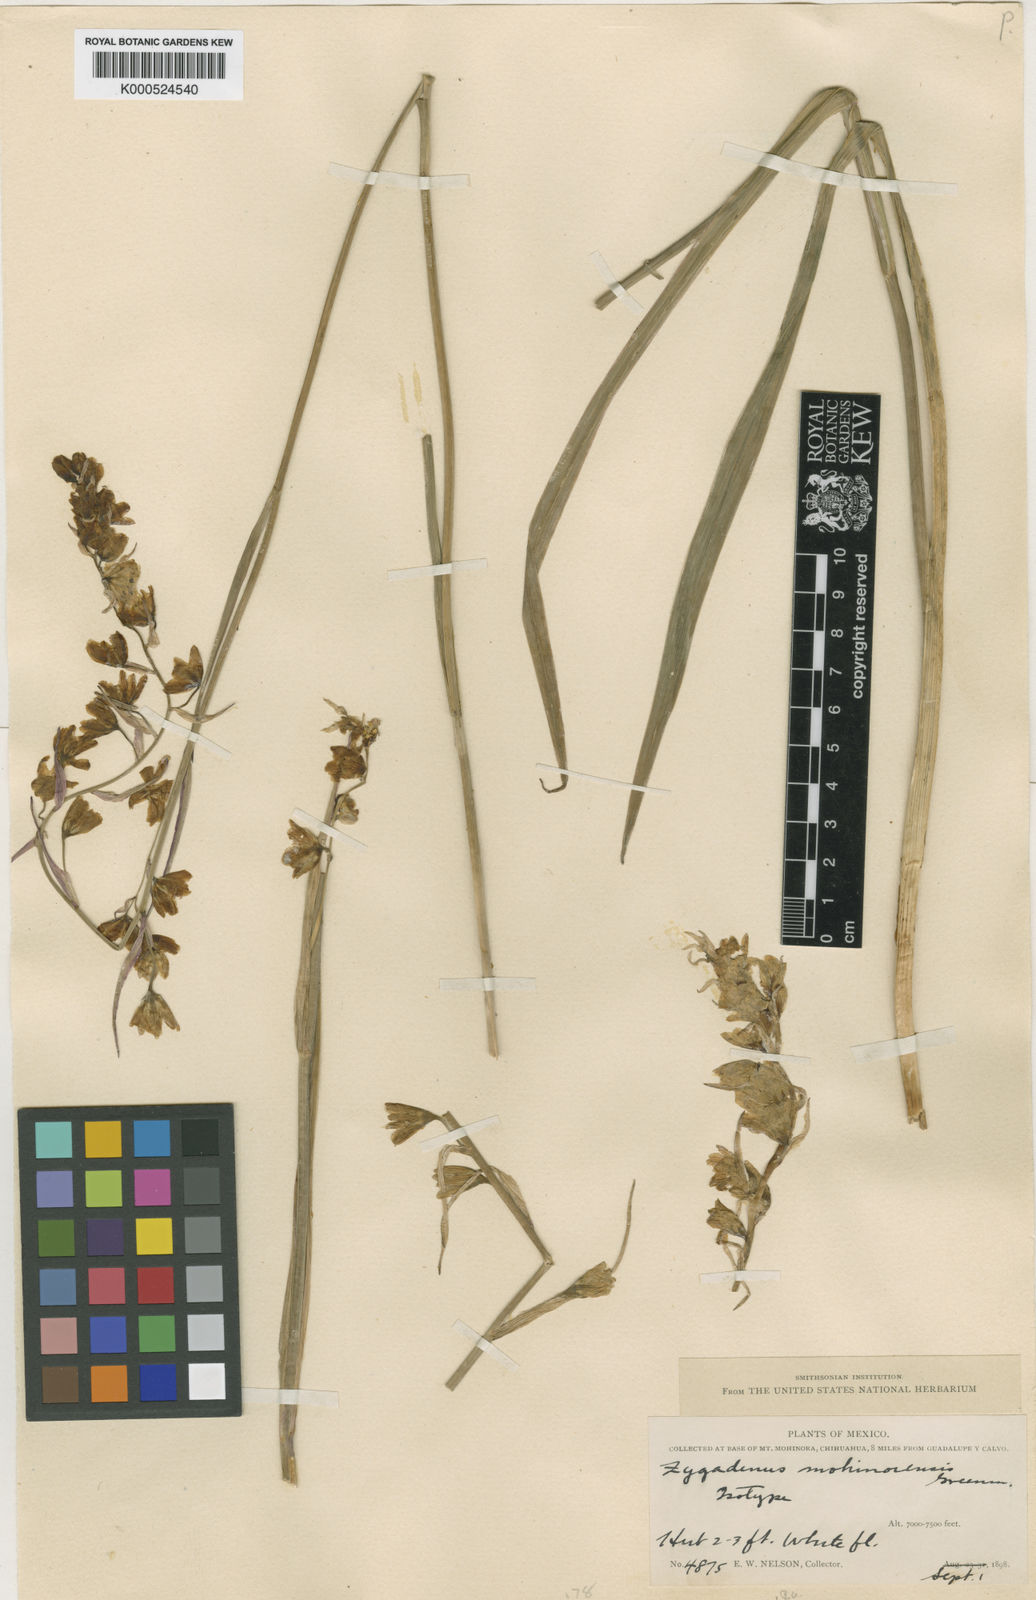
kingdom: Plantae
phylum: Tracheophyta
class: Liliopsida
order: Liliales
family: Melanthiaceae
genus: Zigadenus
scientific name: Zigadenus
